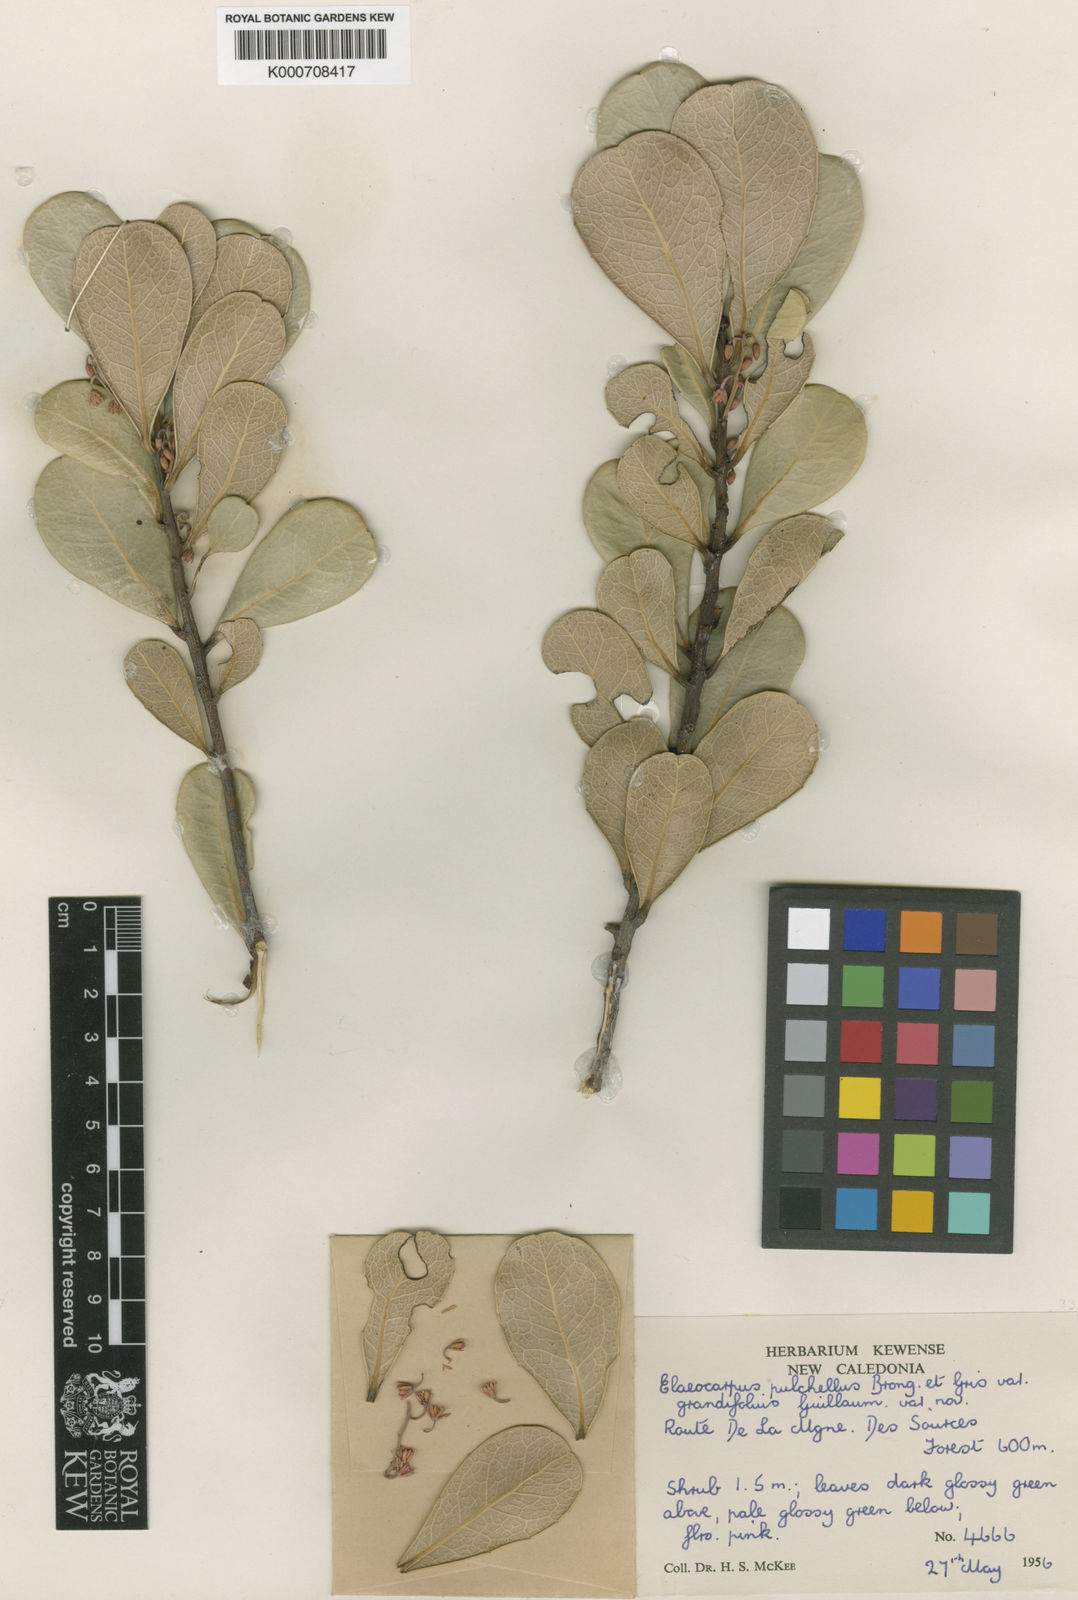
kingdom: Plantae
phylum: Tracheophyta
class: Magnoliopsida
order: Oxalidales
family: Elaeocarpaceae
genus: Elaeocarpus
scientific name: Elaeocarpus pulchellus
